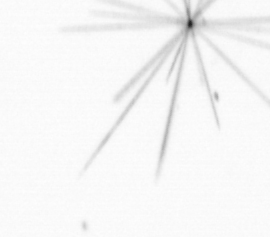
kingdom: Chromista
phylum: Ochrophyta
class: Bacillariophyceae
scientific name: Bacillariophyceae
